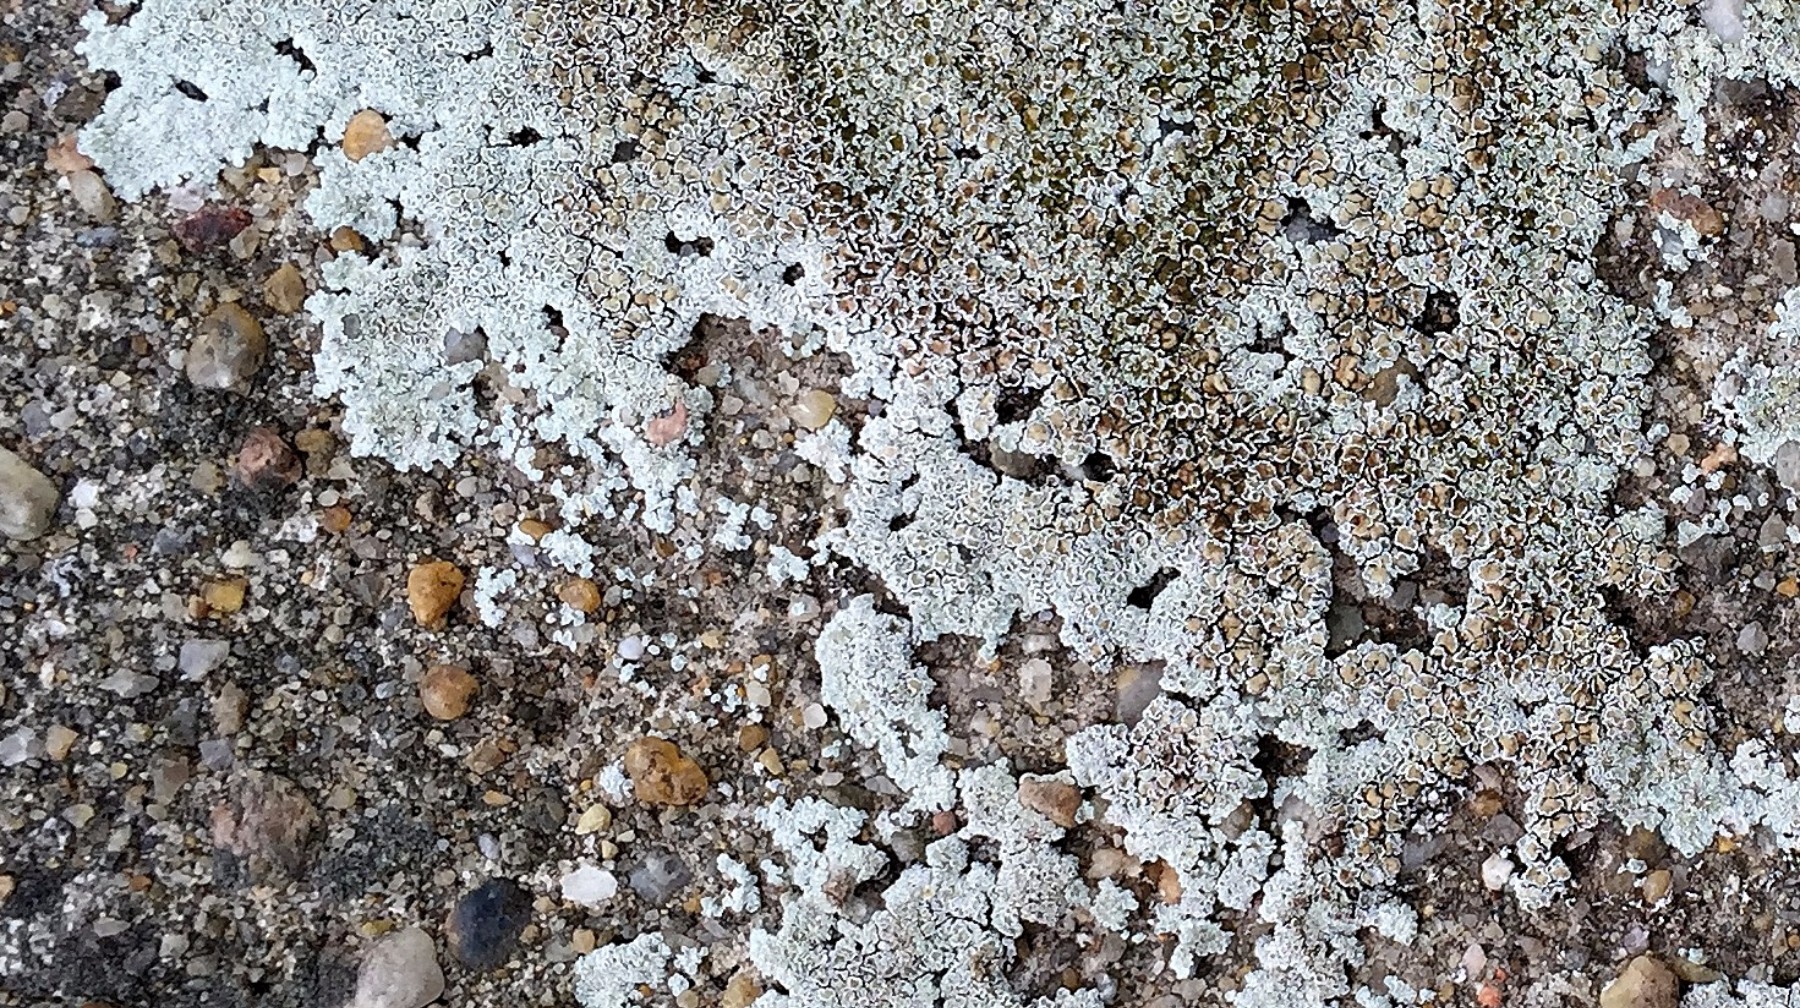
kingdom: Fungi
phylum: Ascomycota
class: Lecanoromycetes
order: Lecanorales
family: Lecanoraceae
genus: Protoparmeliopsis
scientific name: Protoparmeliopsis muralis
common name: randfliget kantskivelav
